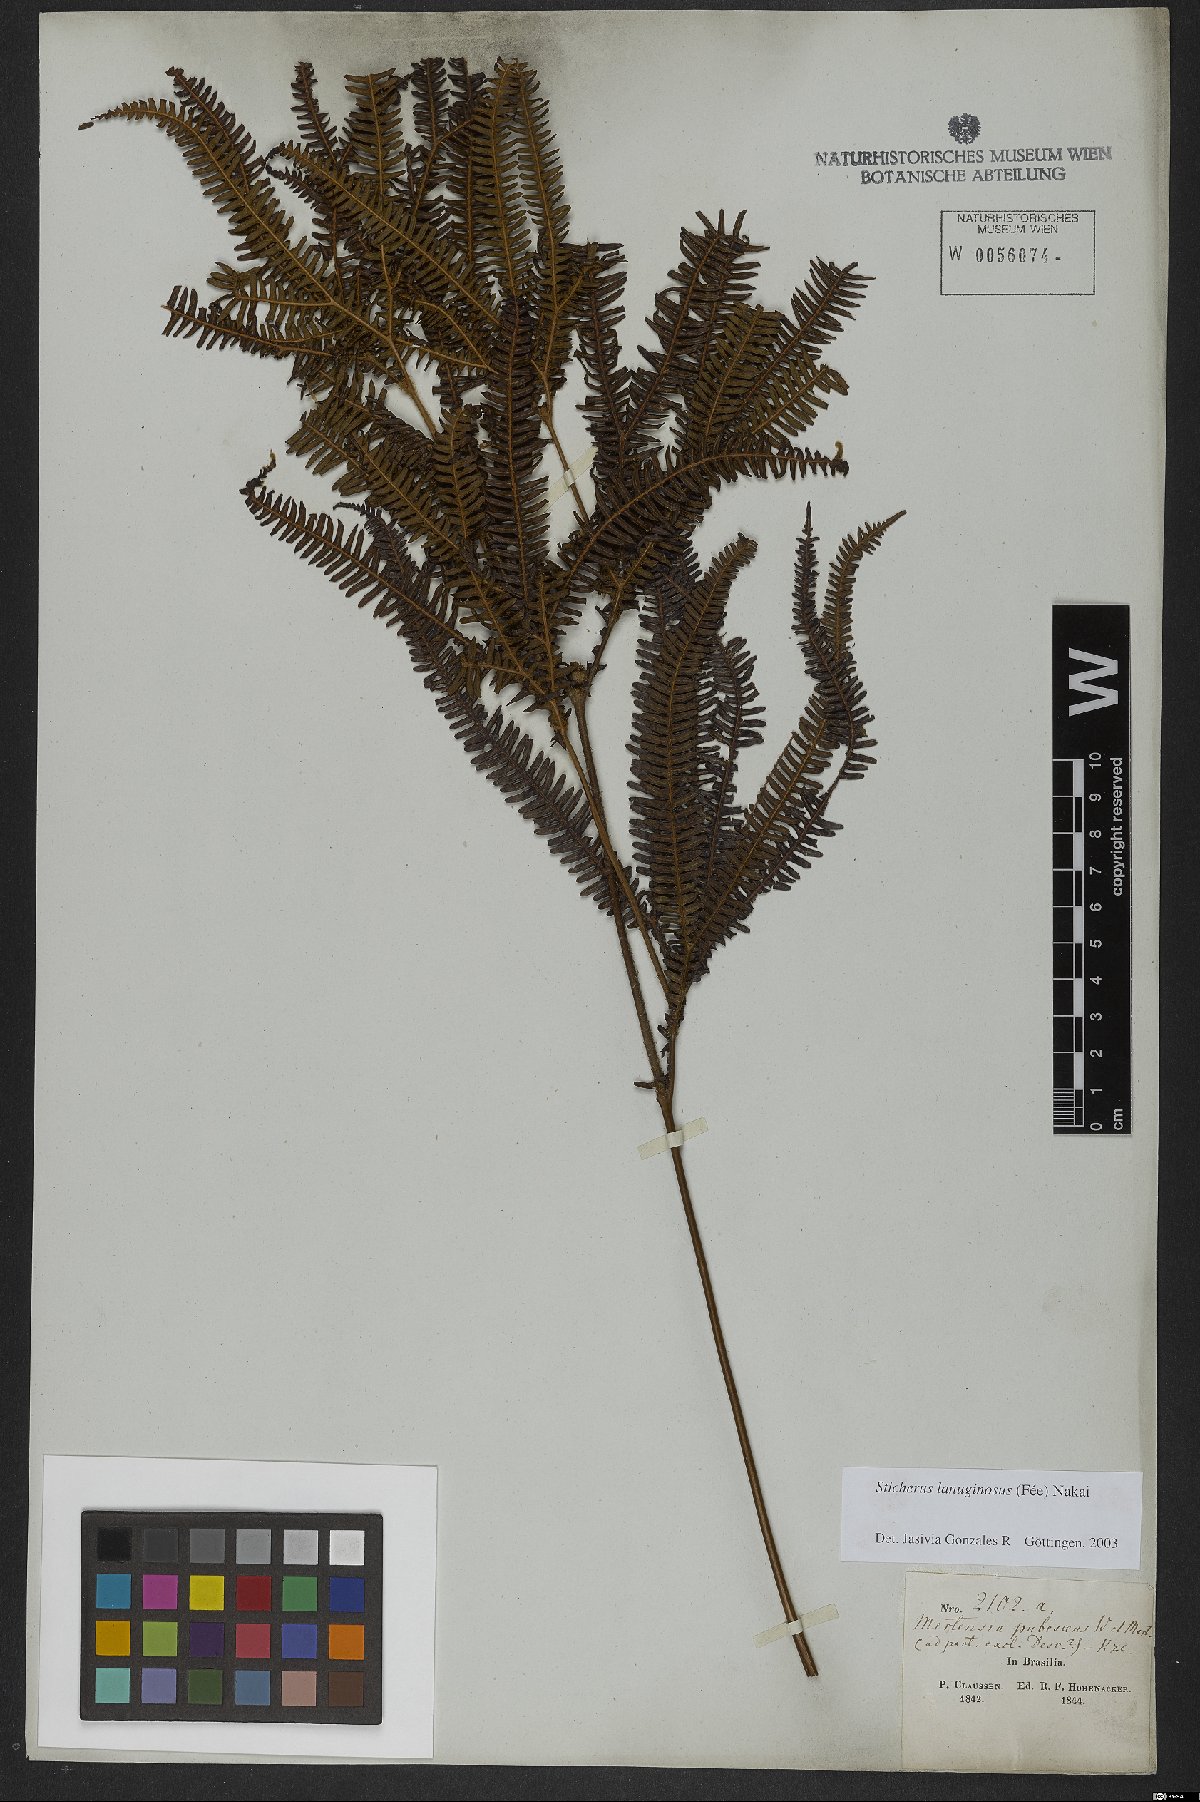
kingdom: Plantae
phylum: Tracheophyta
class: Polypodiopsida
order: Gleicheniales
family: Gleicheniaceae
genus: Sticherus
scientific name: Sticherus lanuginosus
